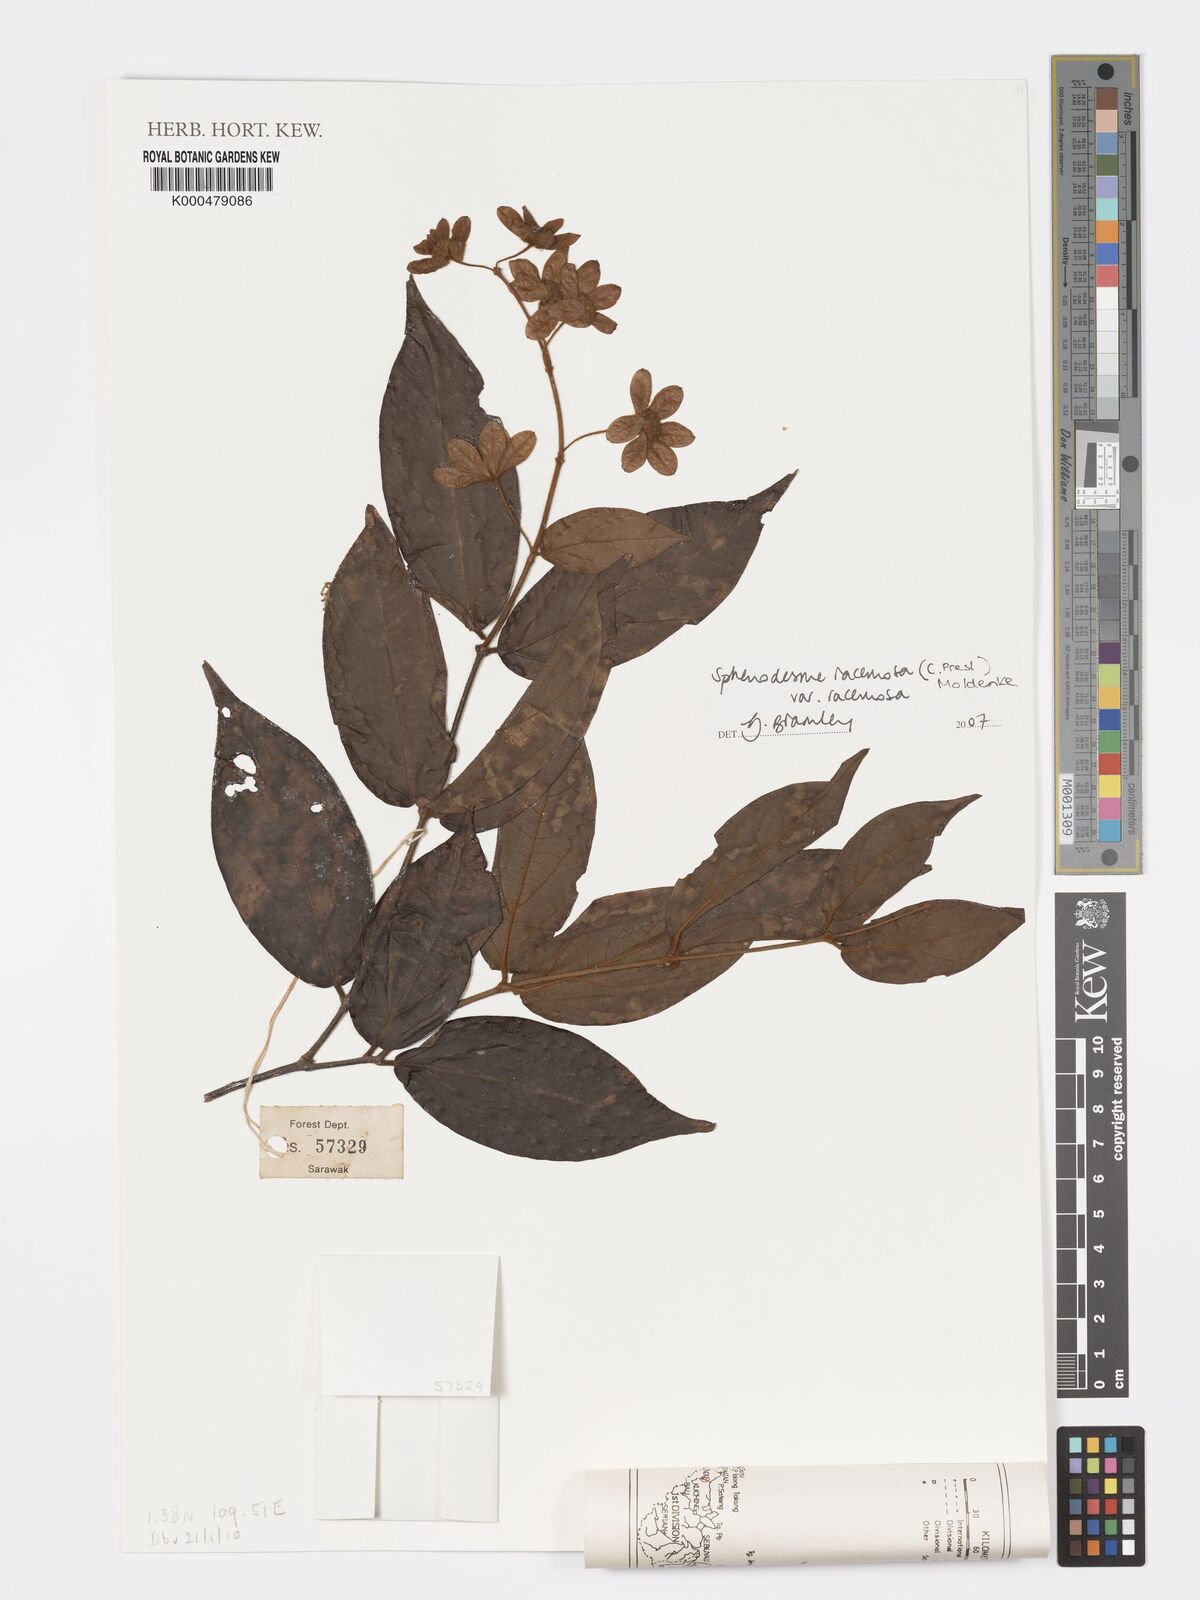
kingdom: Plantae
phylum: Tracheophyta
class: Magnoliopsida
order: Lamiales
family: Lamiaceae
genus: Sphenodesme
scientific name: Sphenodesme racemosa
